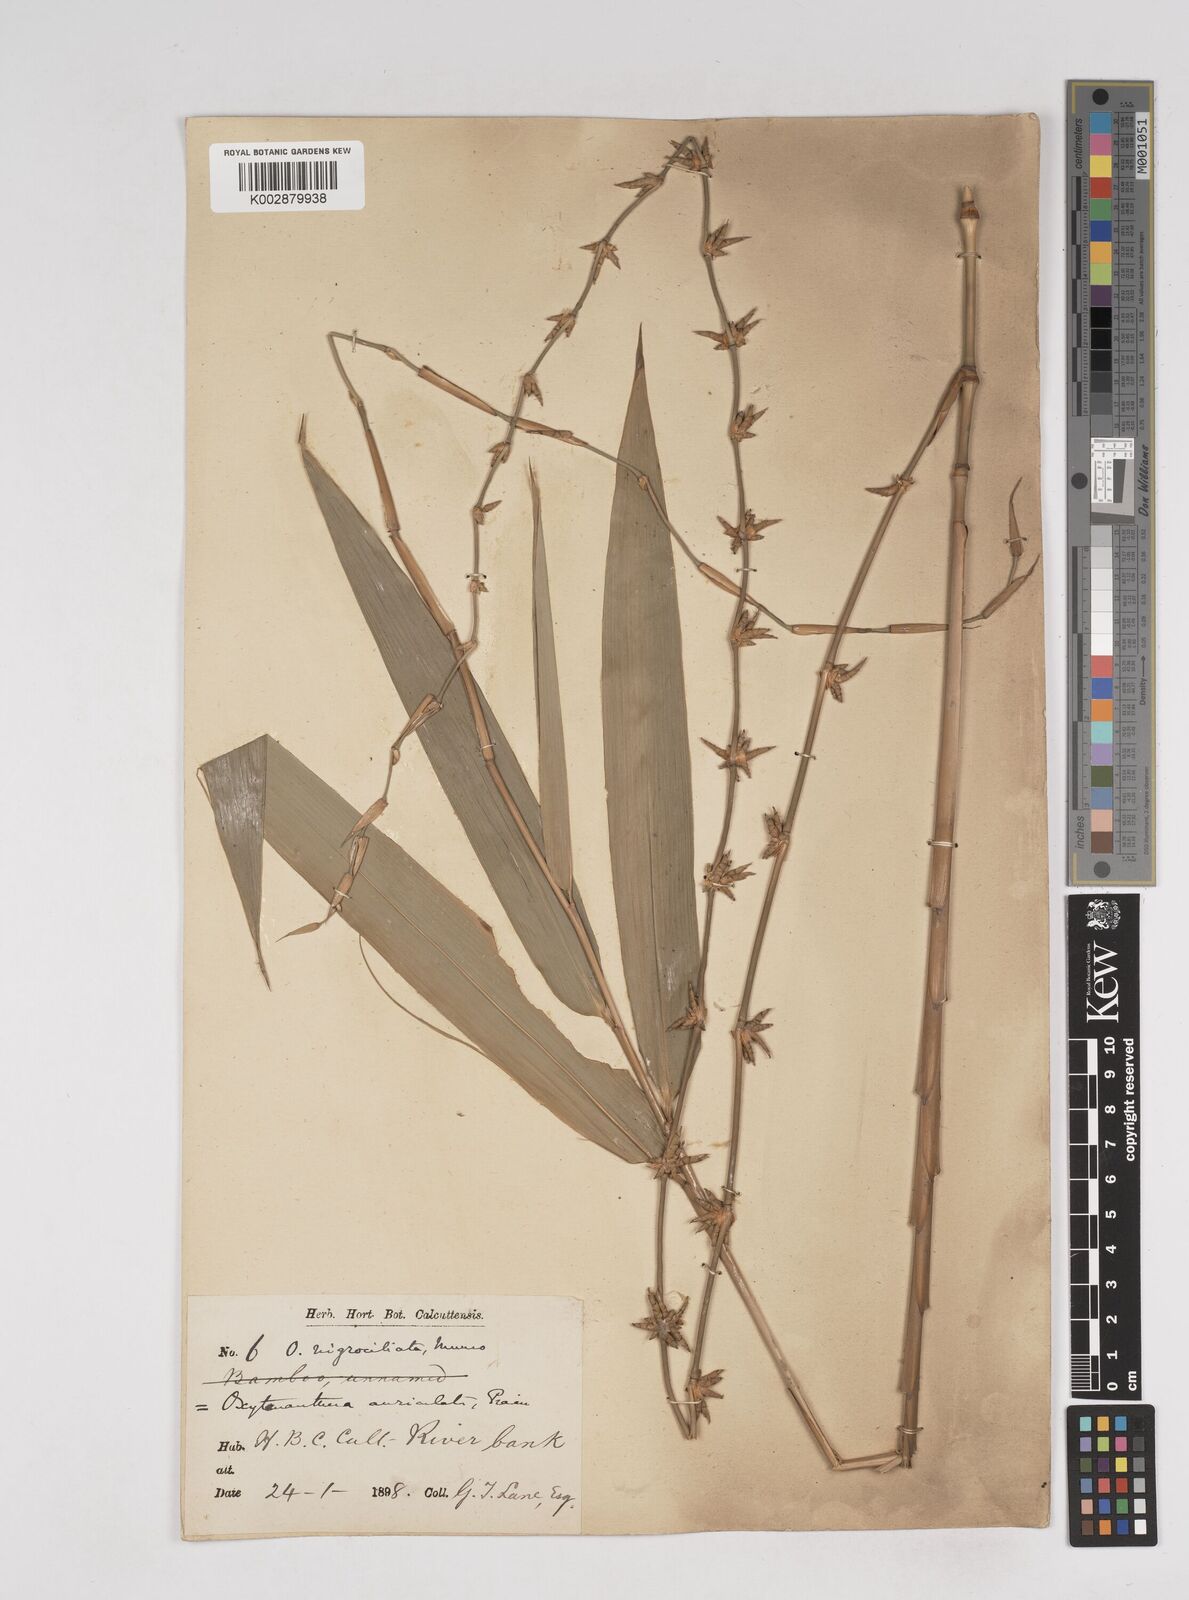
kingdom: Plantae
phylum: Tracheophyta
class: Liliopsida
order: Poales
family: Poaceae
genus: Gigantochloa
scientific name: Gigantochloa nigrociliata
